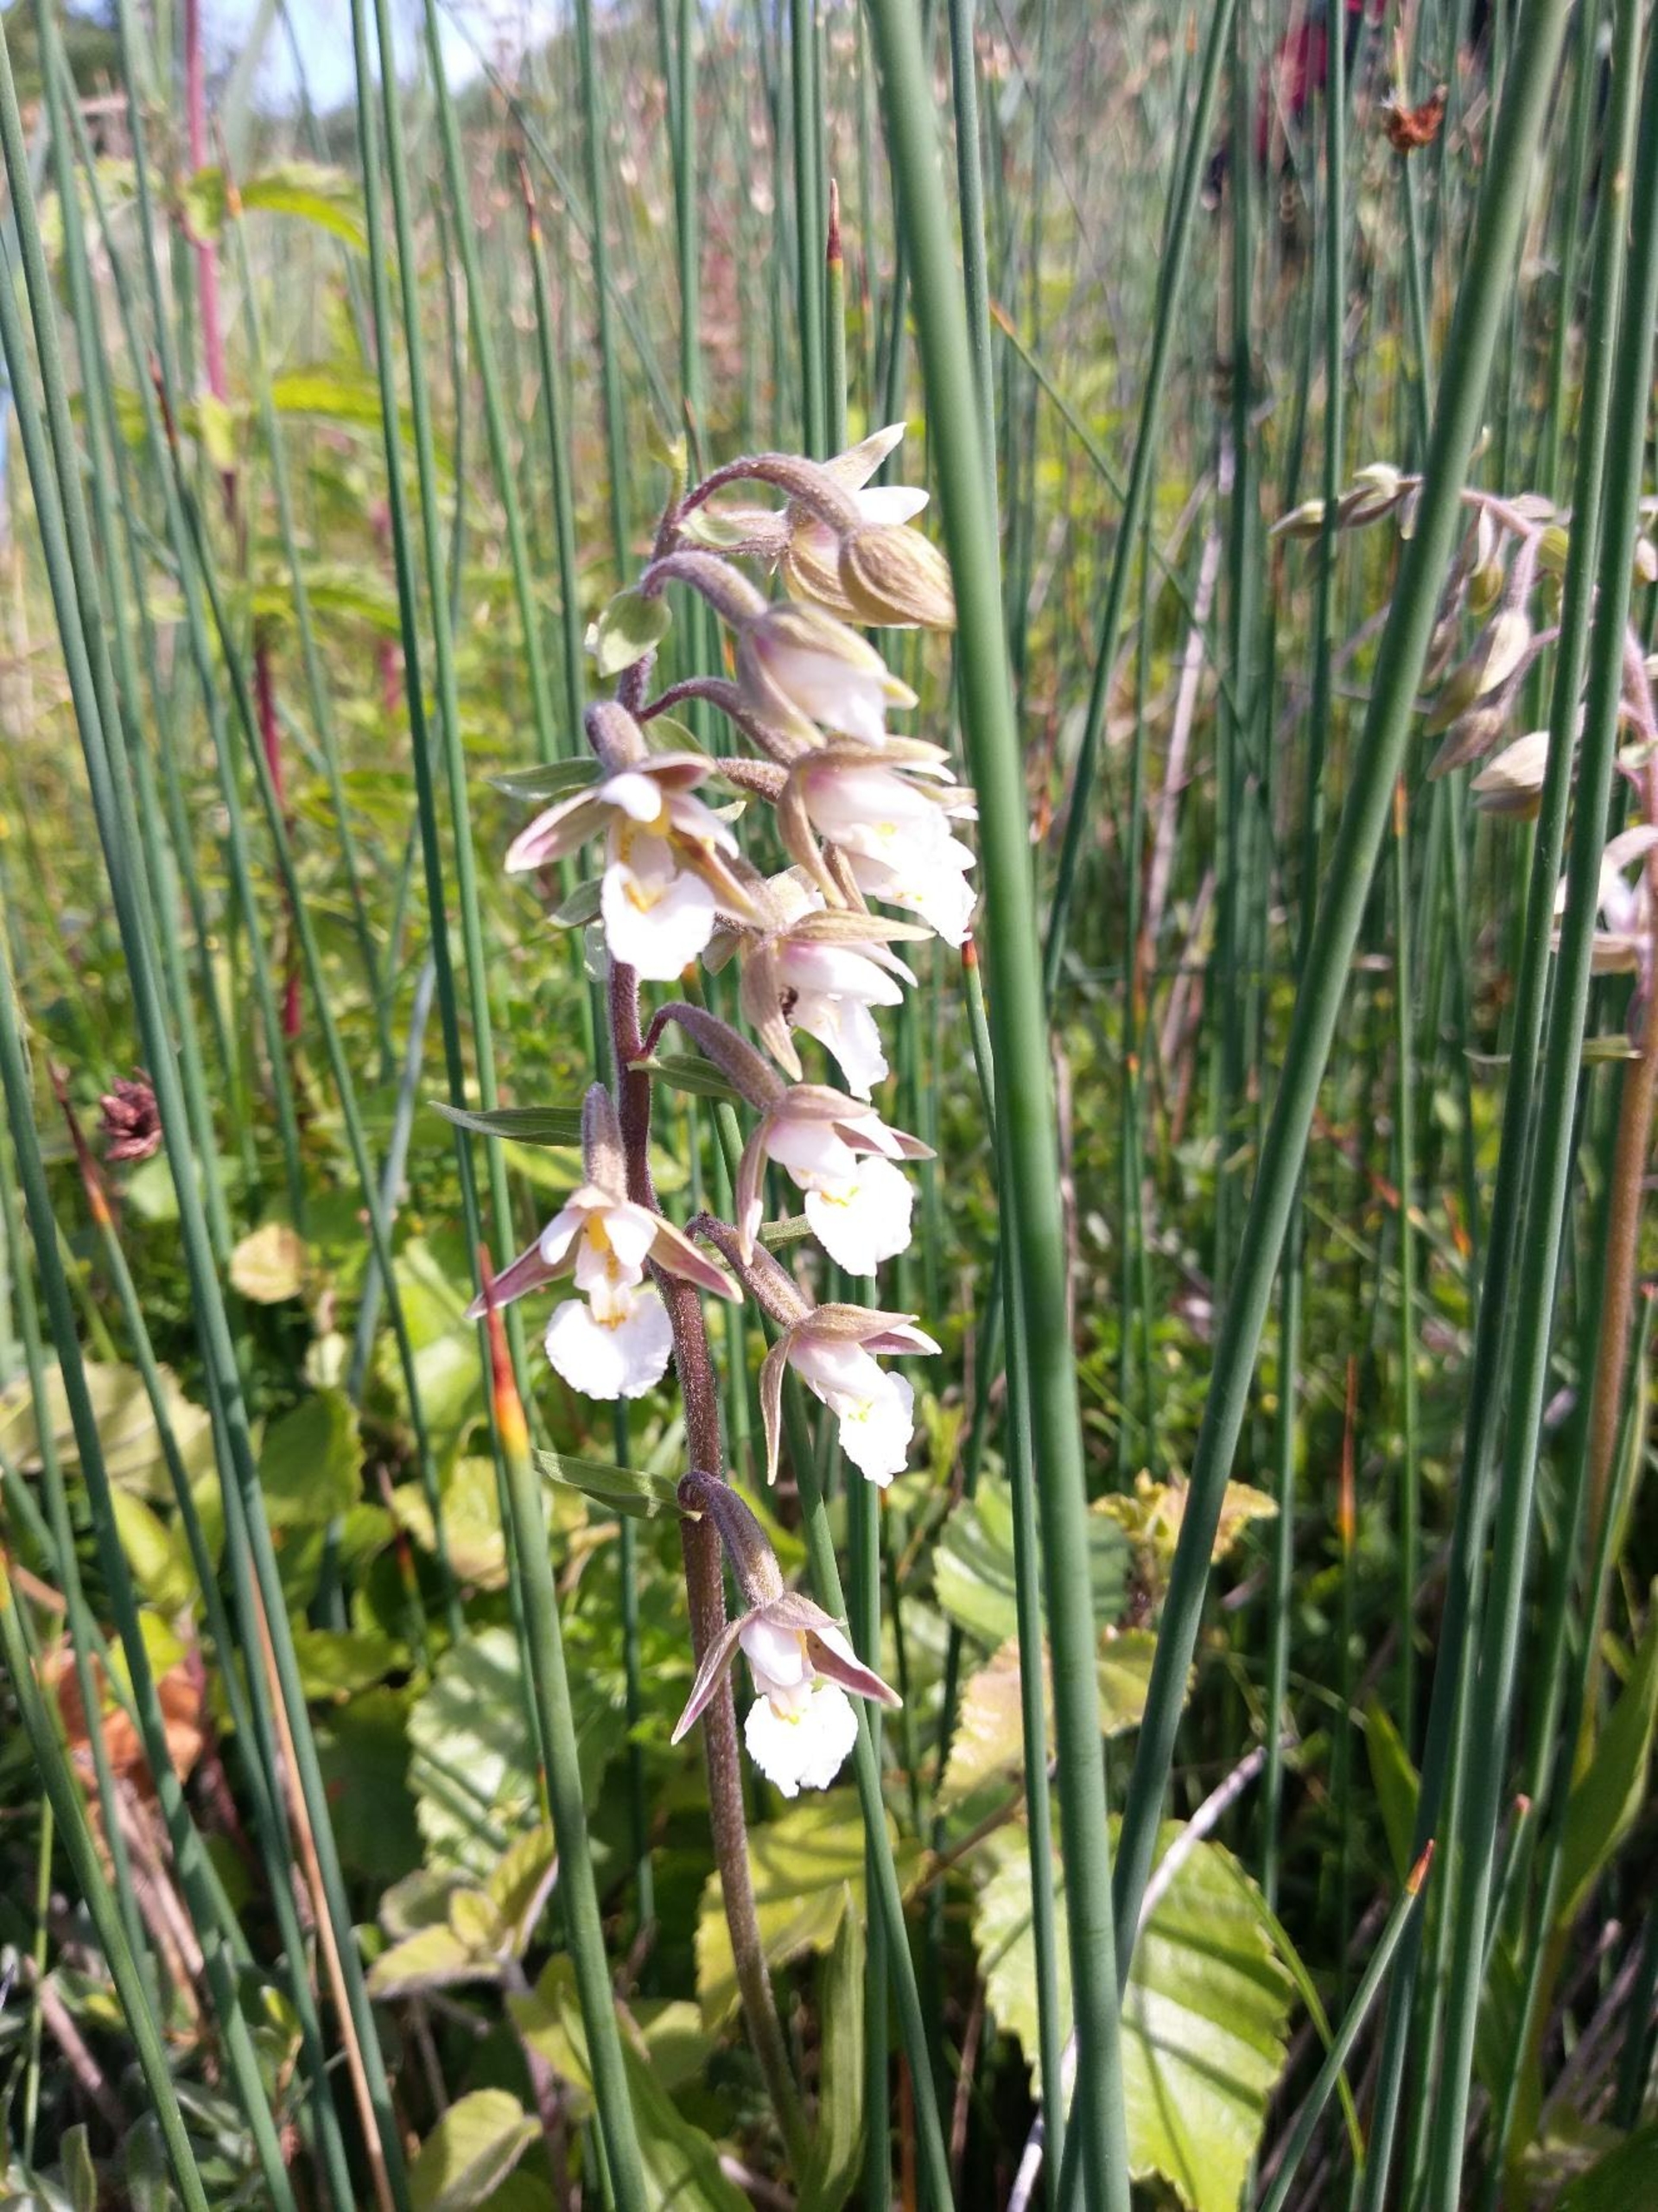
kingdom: Plantae
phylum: Tracheophyta
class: Liliopsida
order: Asparagales
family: Orchidaceae
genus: Epipactis
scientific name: Epipactis palustris
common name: Sump-hullæbe
